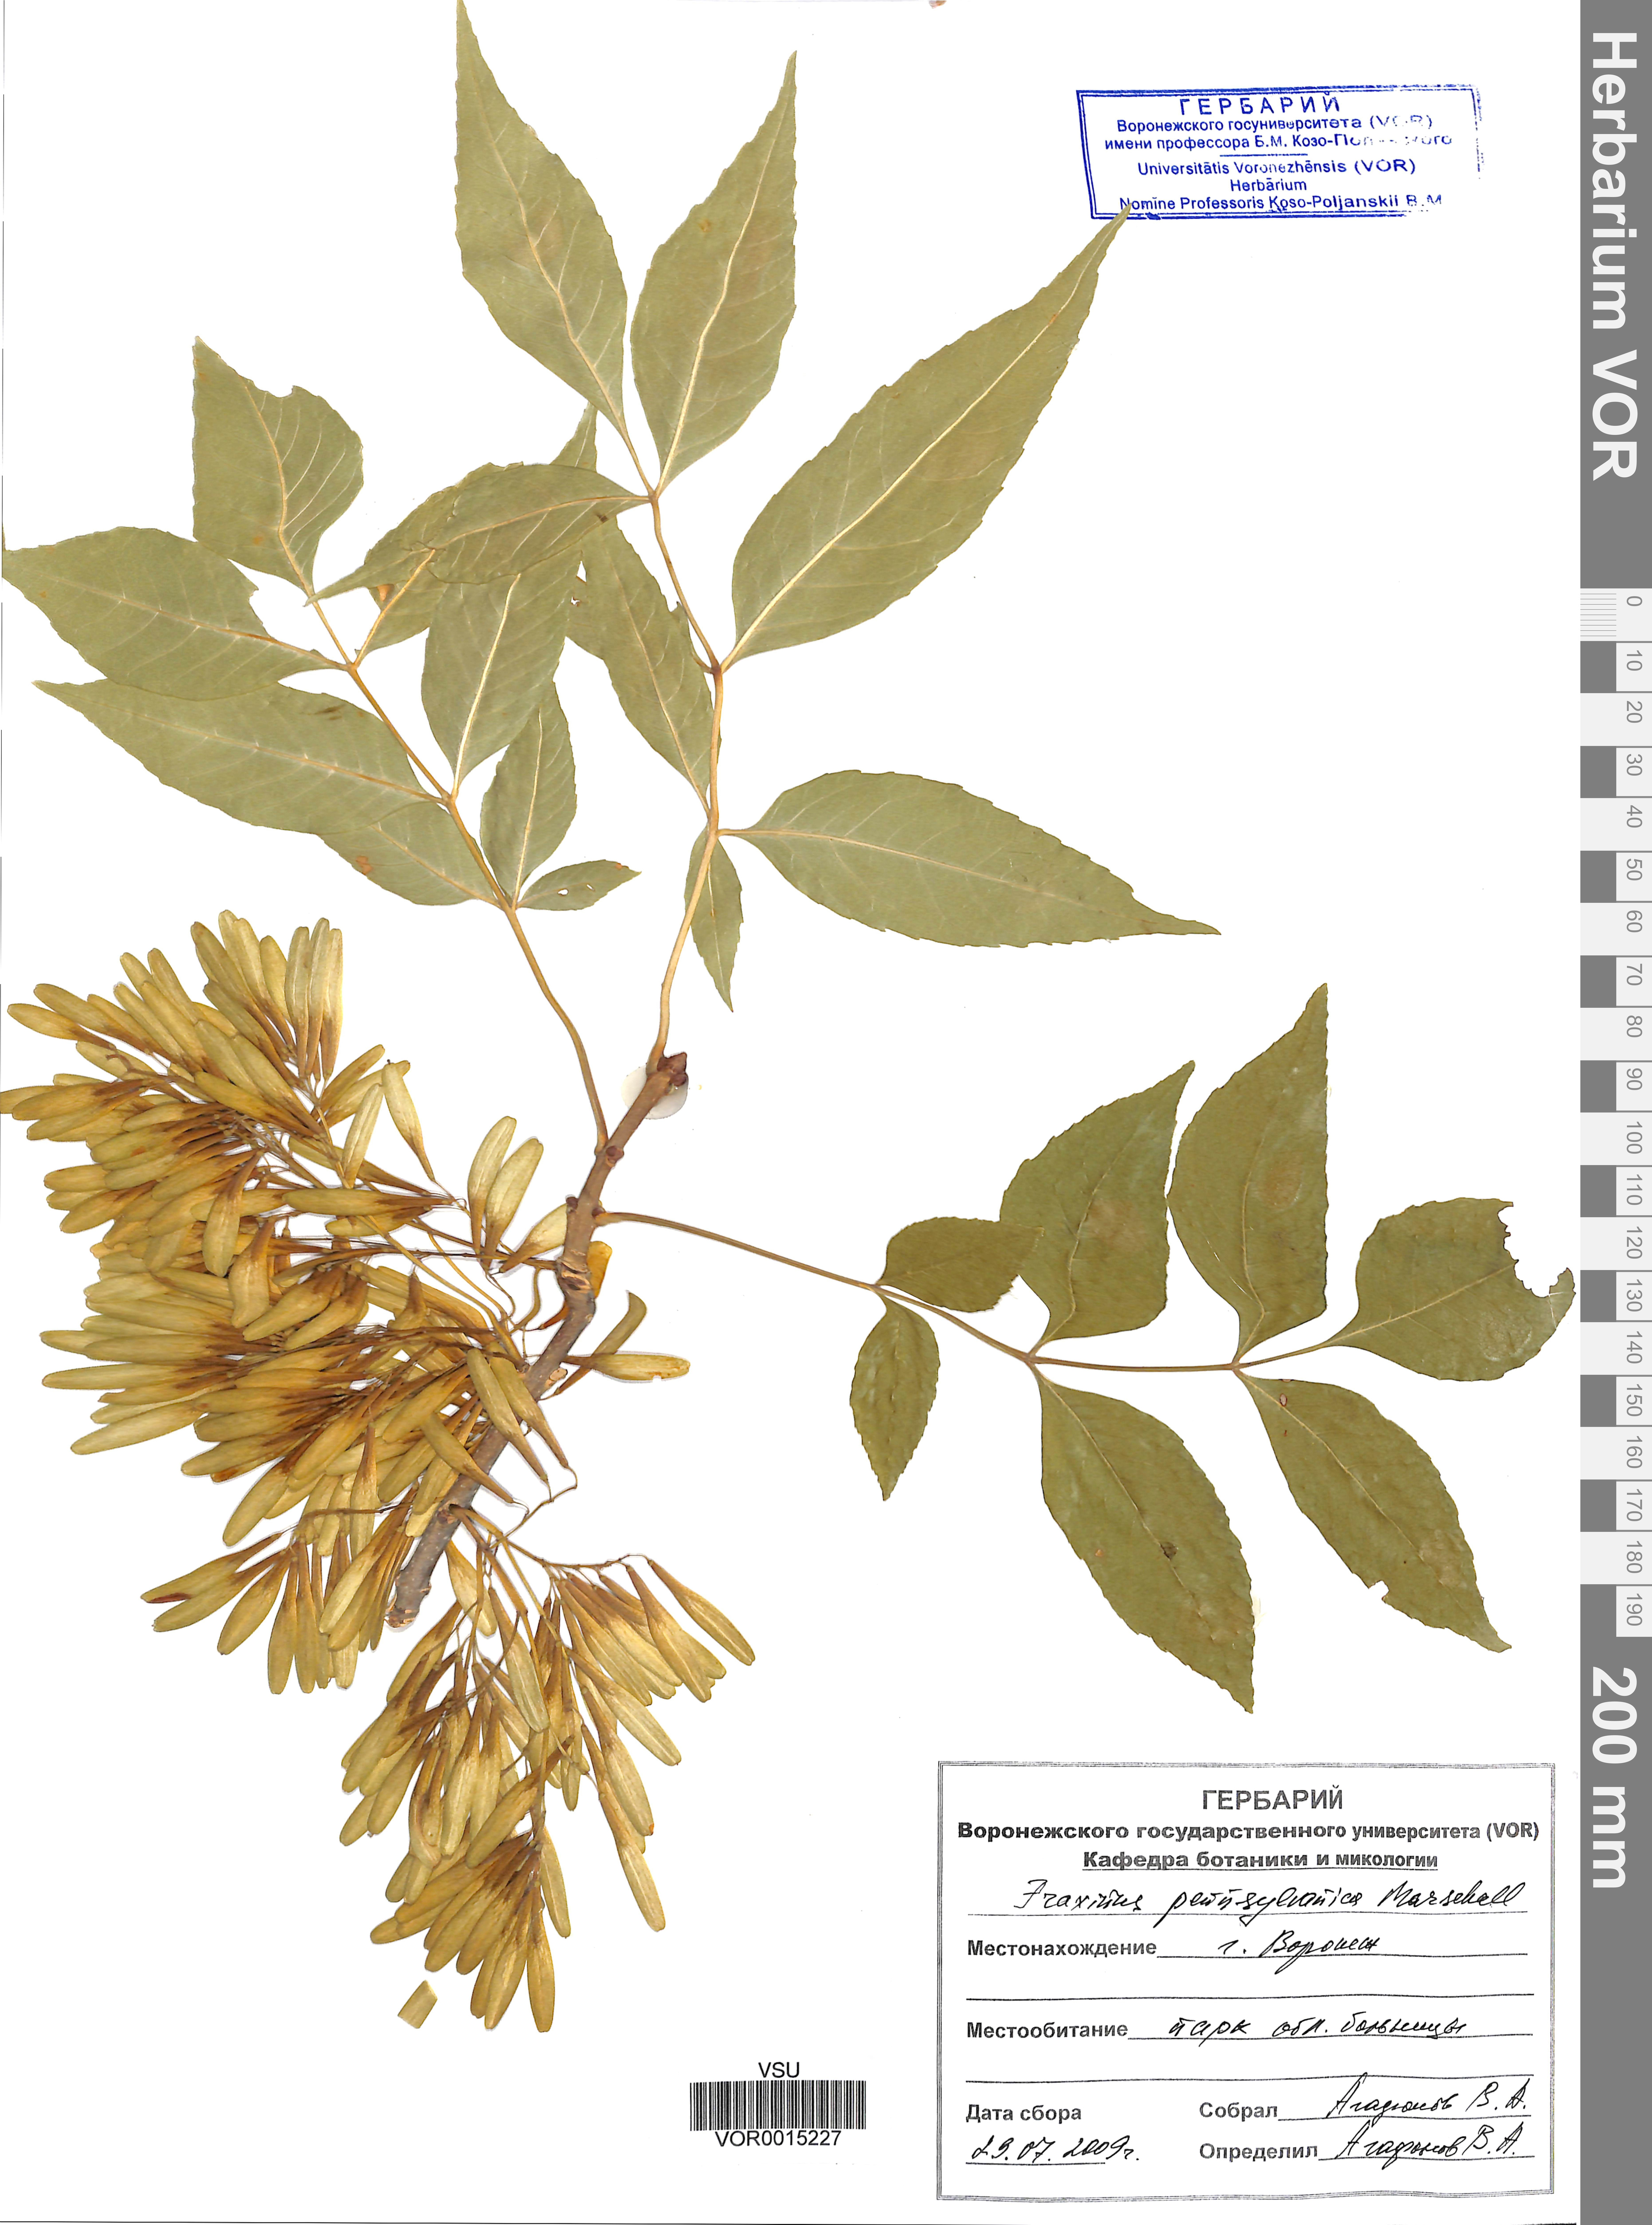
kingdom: Plantae
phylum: Tracheophyta
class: Magnoliopsida
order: Lamiales
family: Oleaceae
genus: Fraxinus
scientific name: Fraxinus pennsylvanica
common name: Green ash
